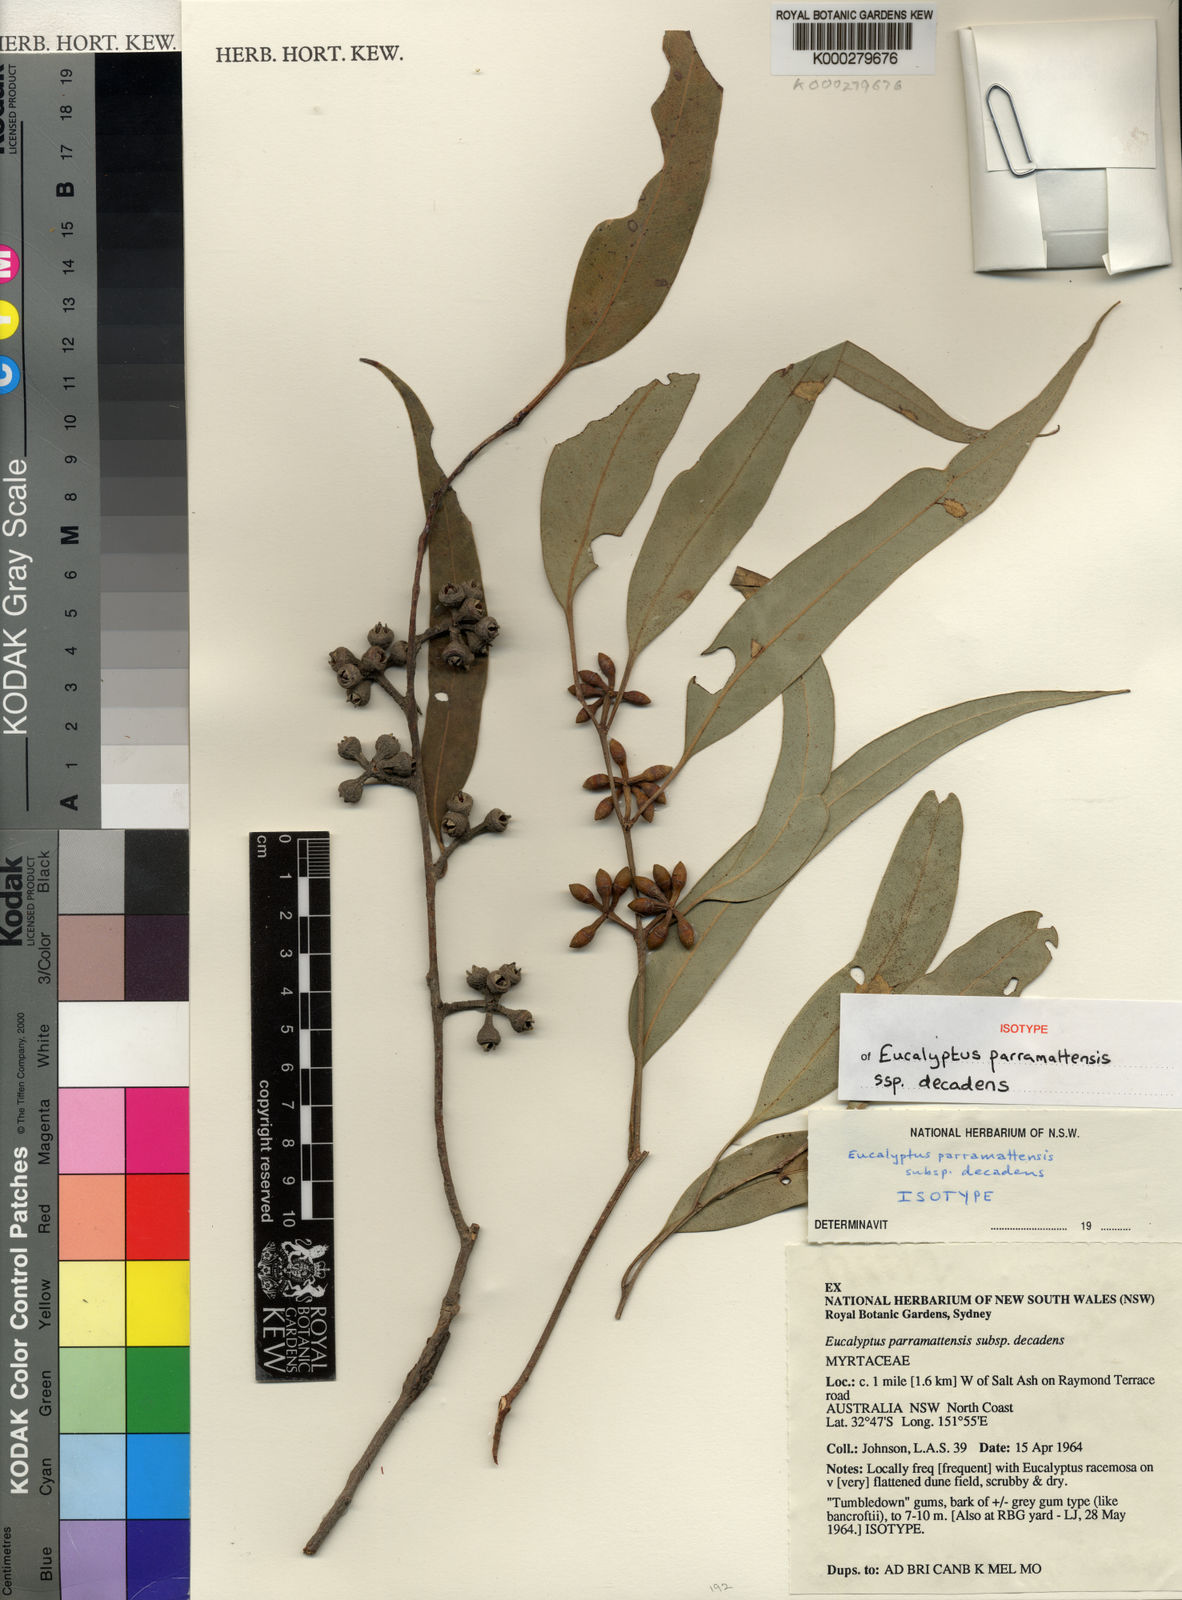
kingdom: Plantae
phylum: Tracheophyta
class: Magnoliopsida
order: Myrtales
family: Myrtaceae
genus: Eucalyptus
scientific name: Eucalyptus parramattensis
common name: Parramatta red gum
